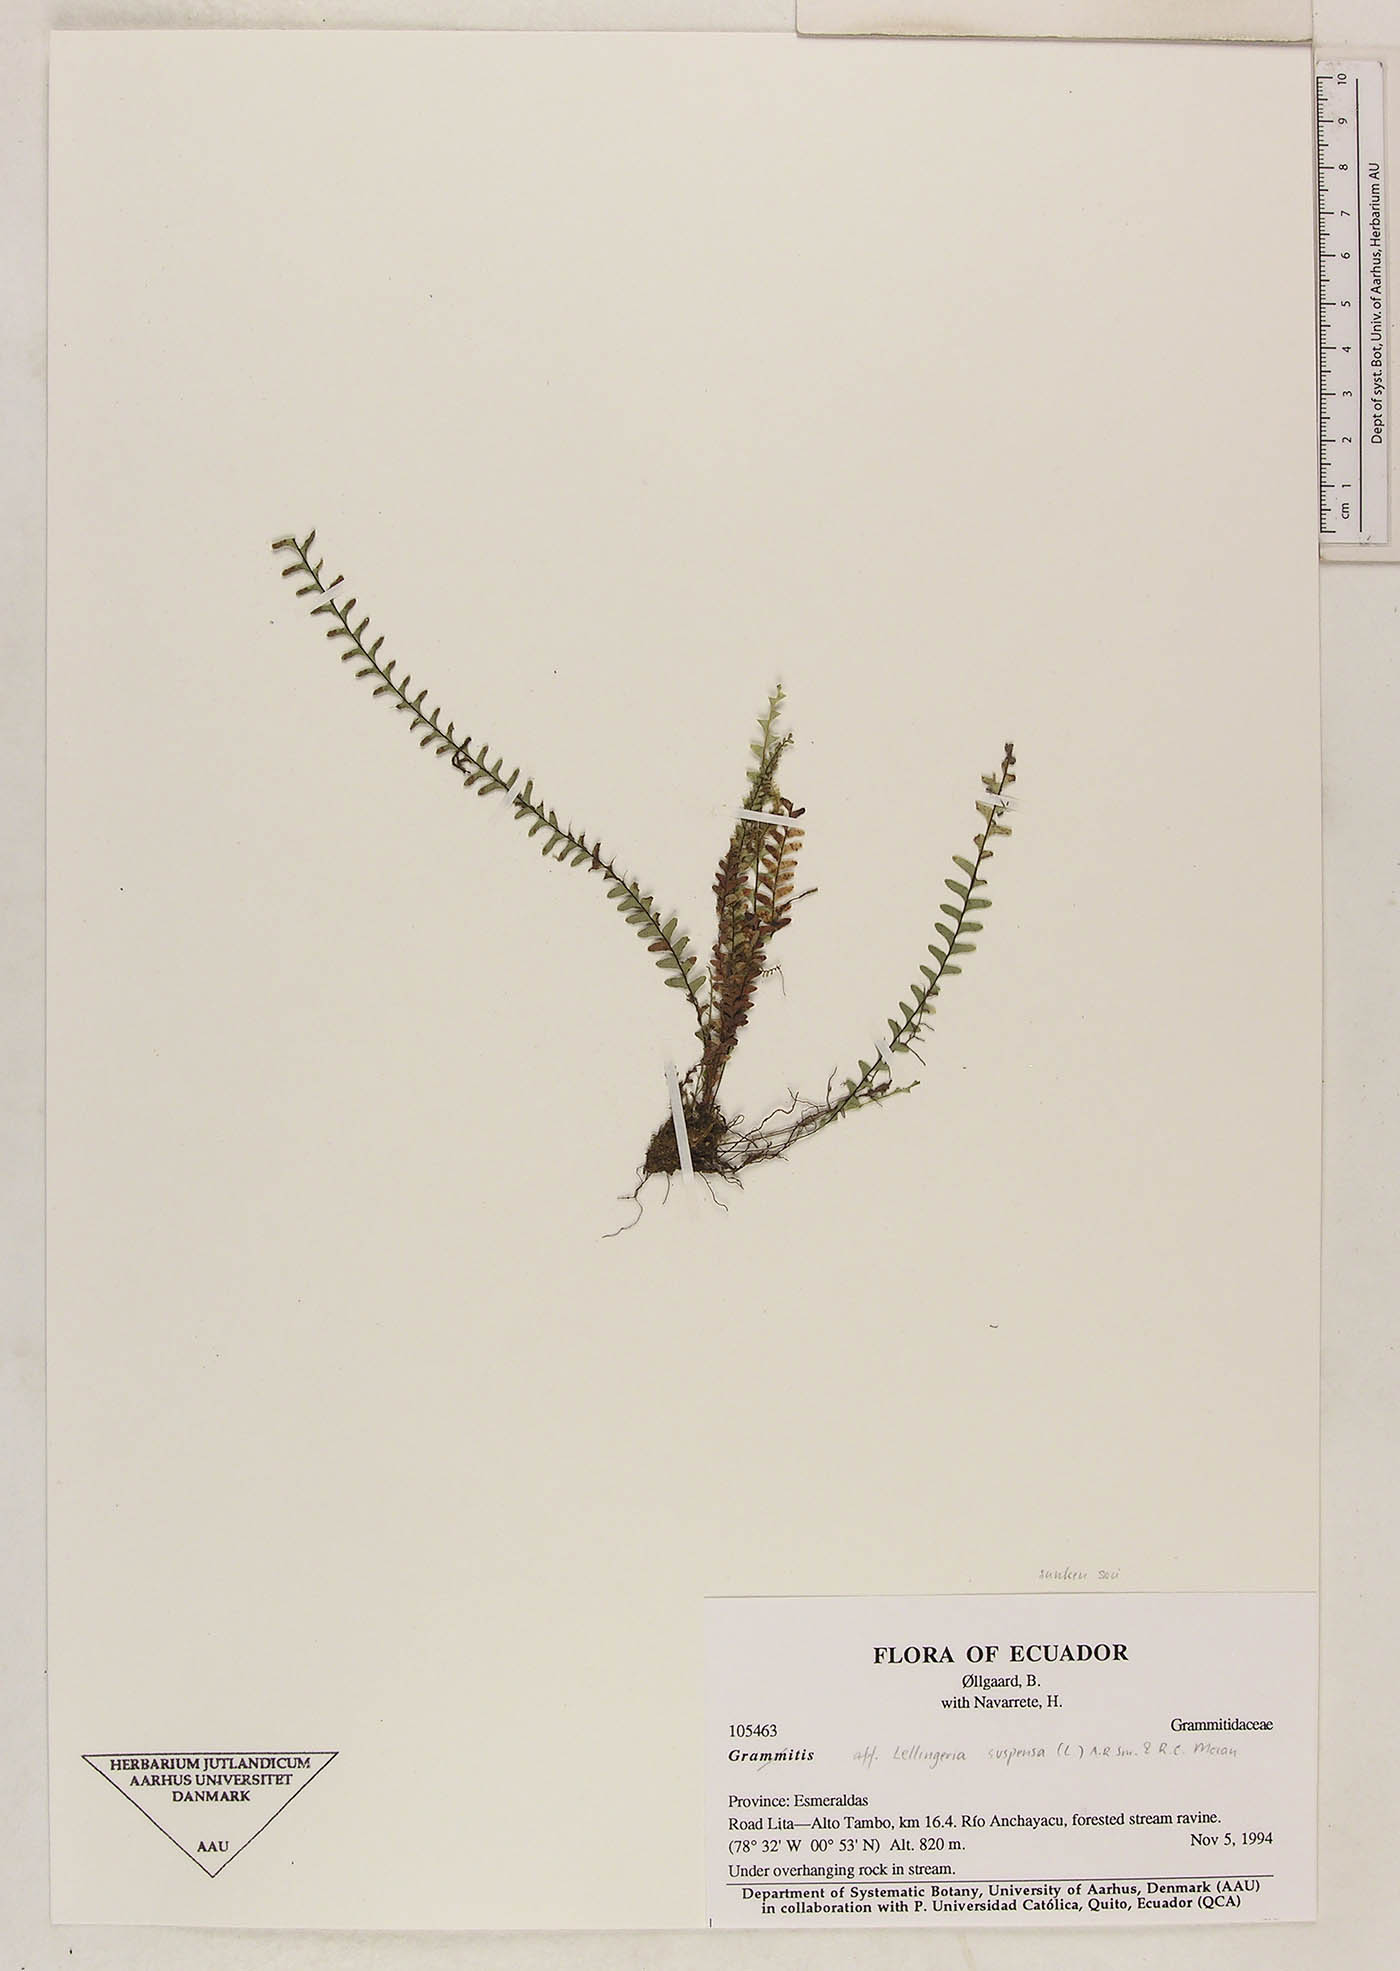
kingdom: Plantae
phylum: Tracheophyta
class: Polypodiopsida
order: Polypodiales
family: Polypodiaceae
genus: Lellingeria
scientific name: Lellingeria subsessilis
